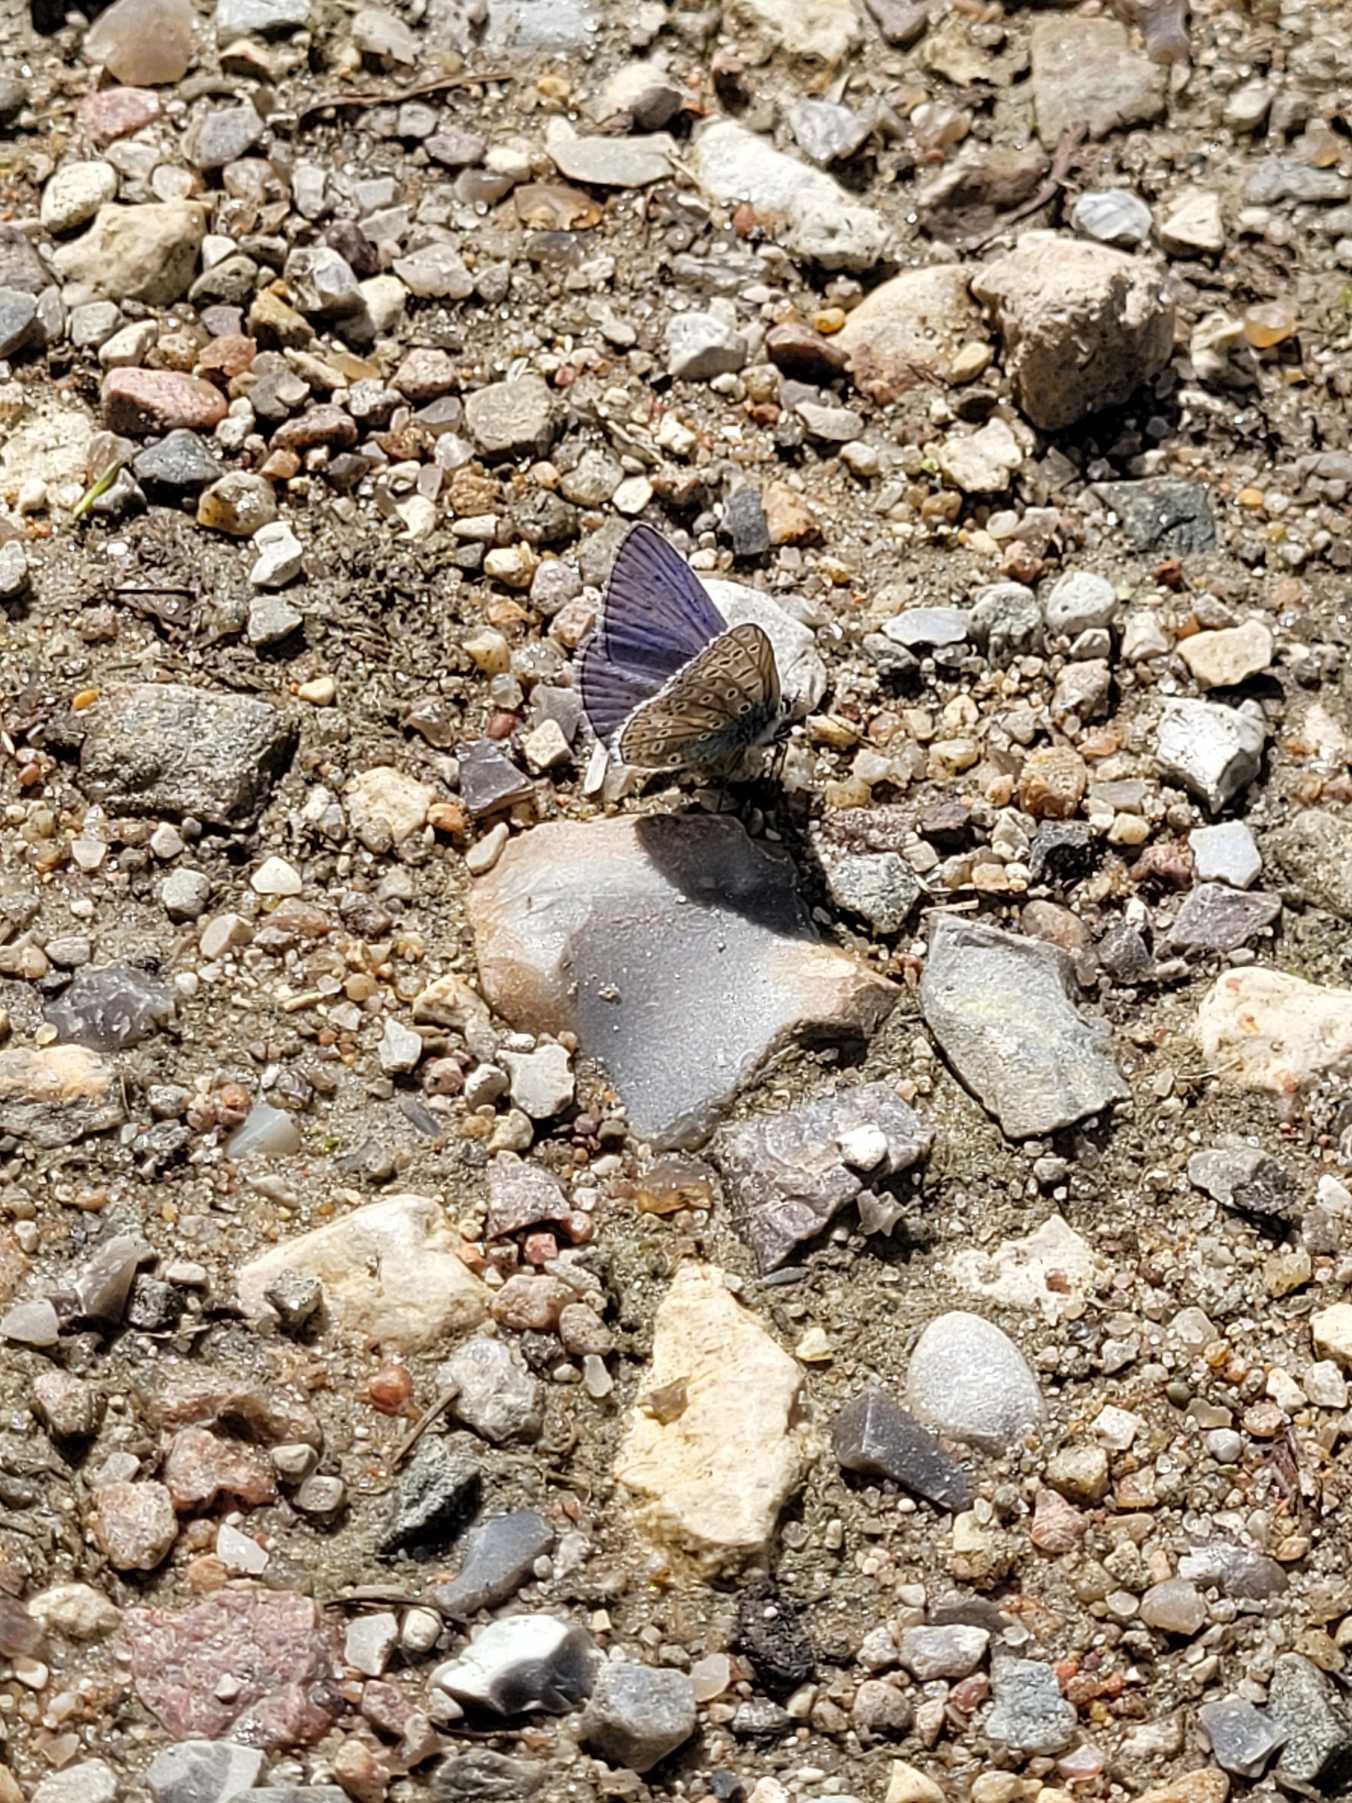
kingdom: Animalia
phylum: Arthropoda
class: Insecta
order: Lepidoptera
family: Lycaenidae
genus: Polyommatus
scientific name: Polyommatus icarus
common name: Almindelig blåfugl
